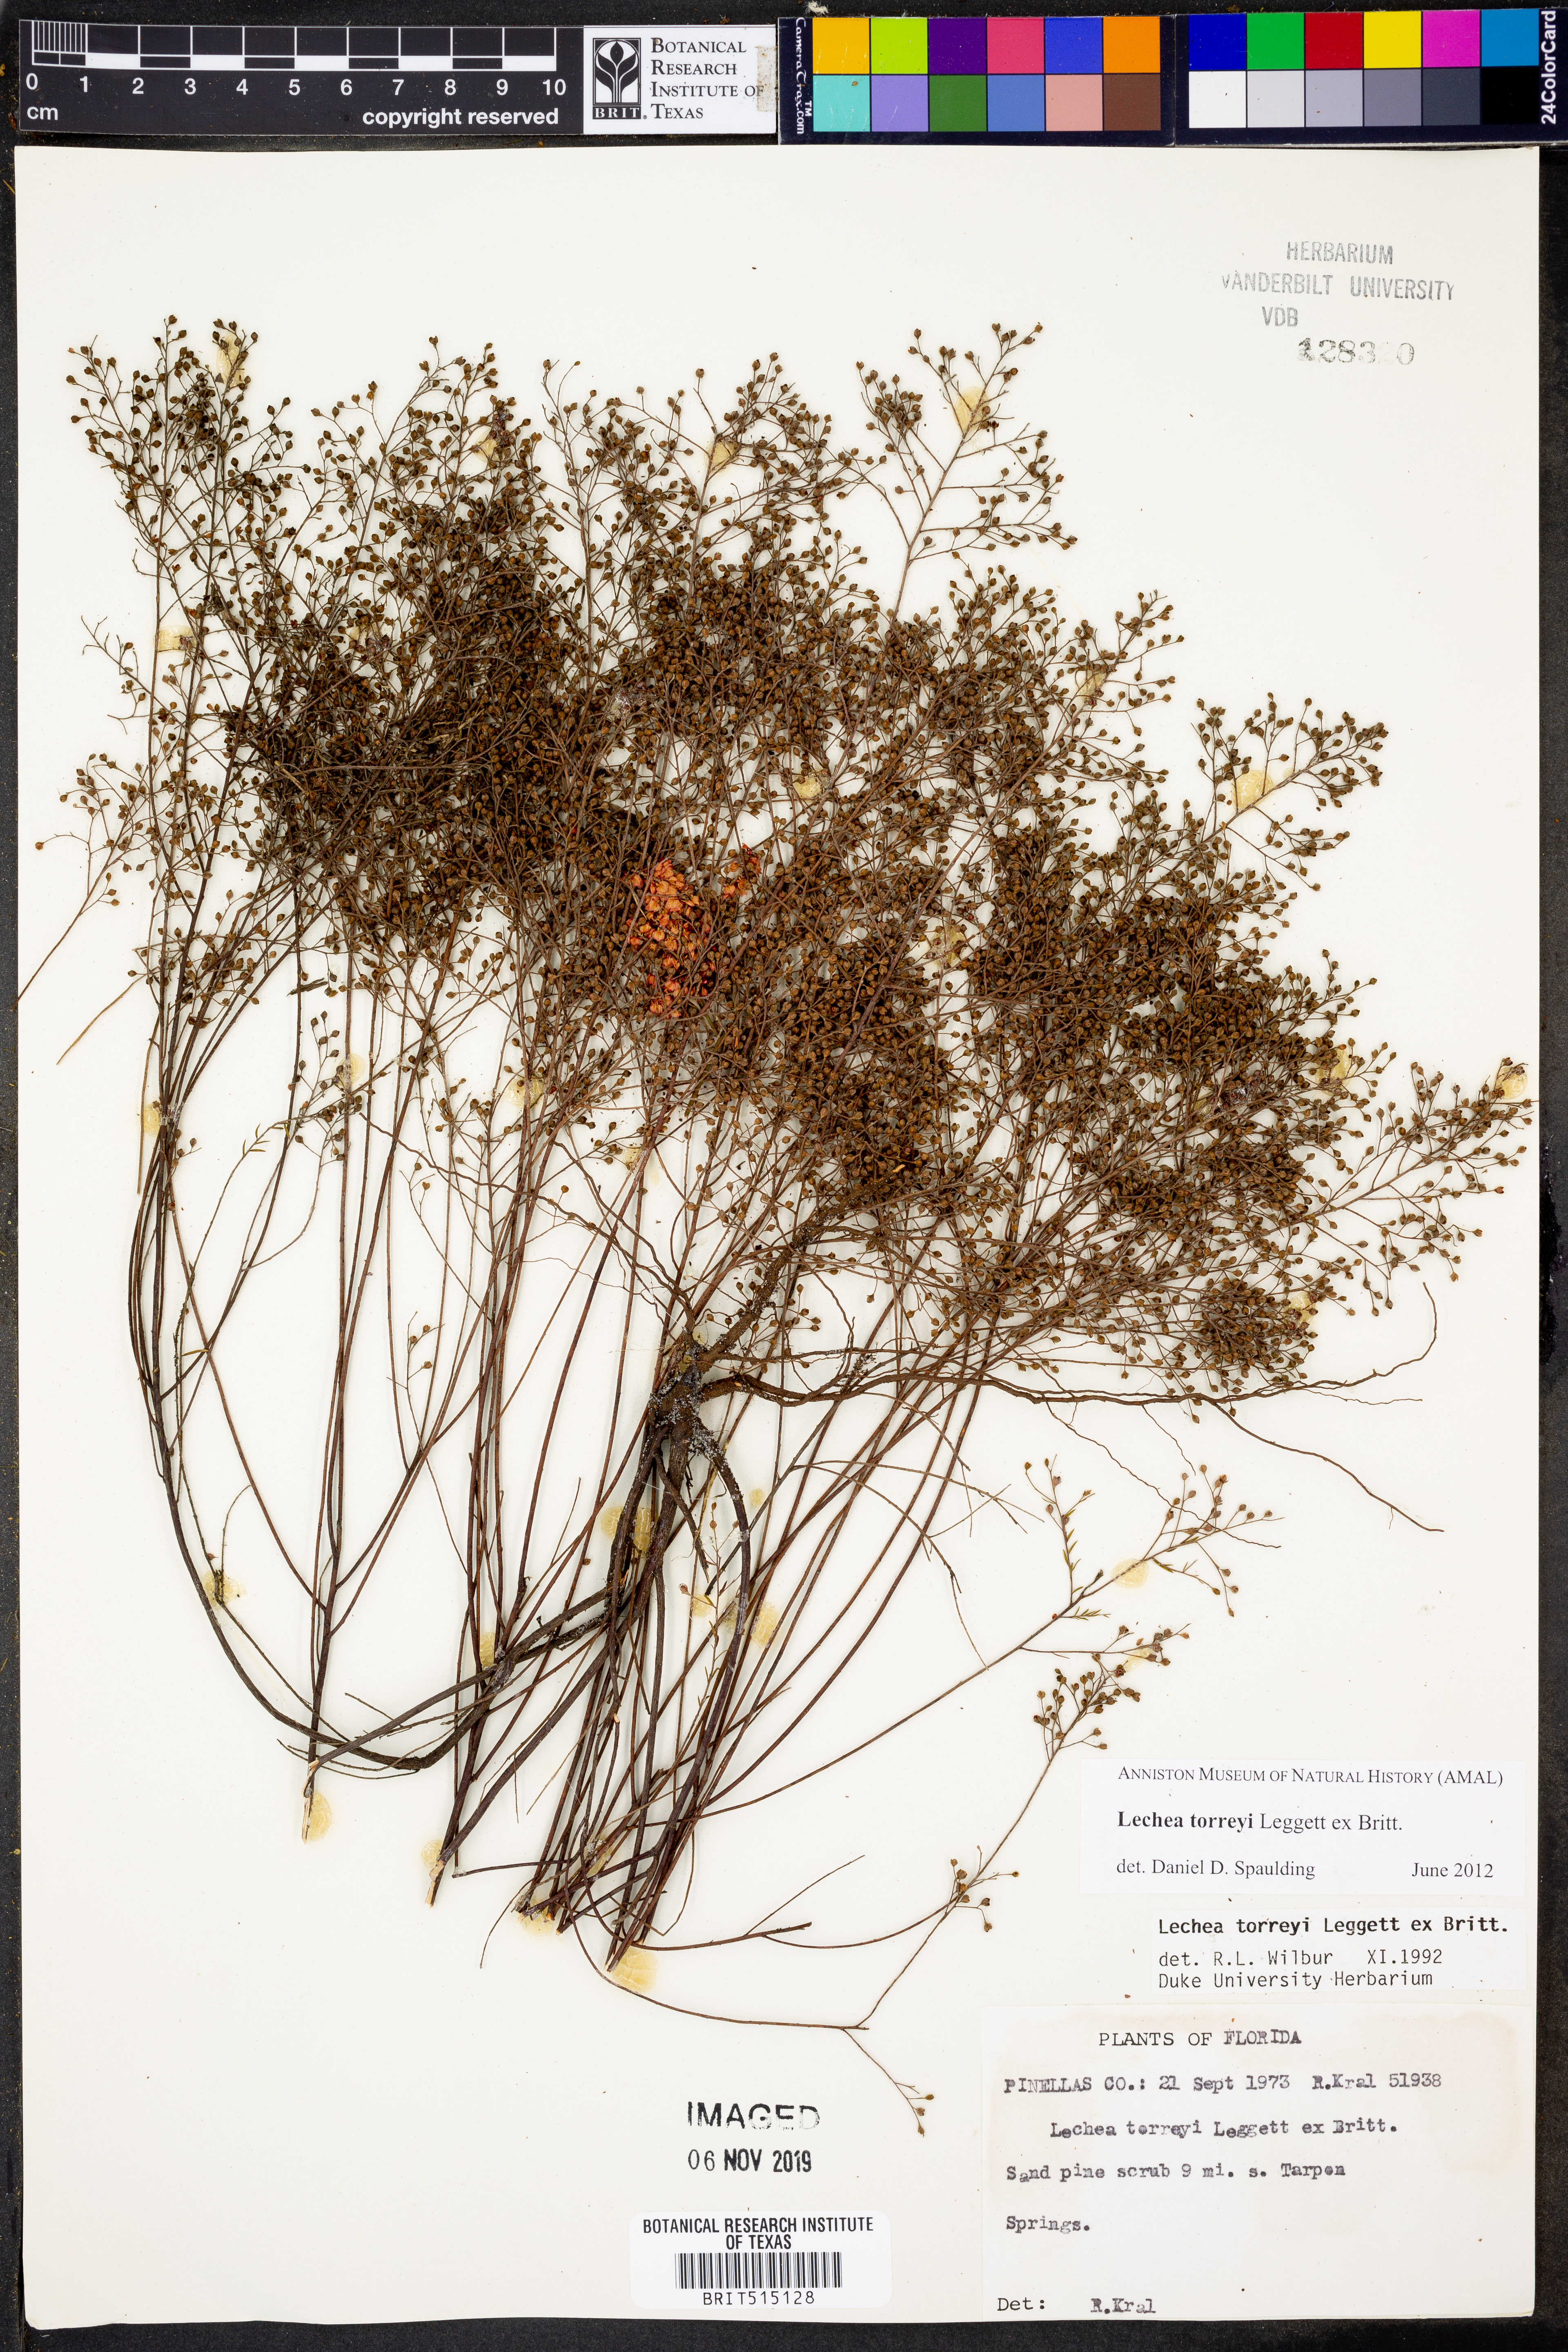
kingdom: Plantae
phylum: Tracheophyta
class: Magnoliopsida
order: Malvales
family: Cistaceae
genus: Lechea
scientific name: Lechea torreyi
